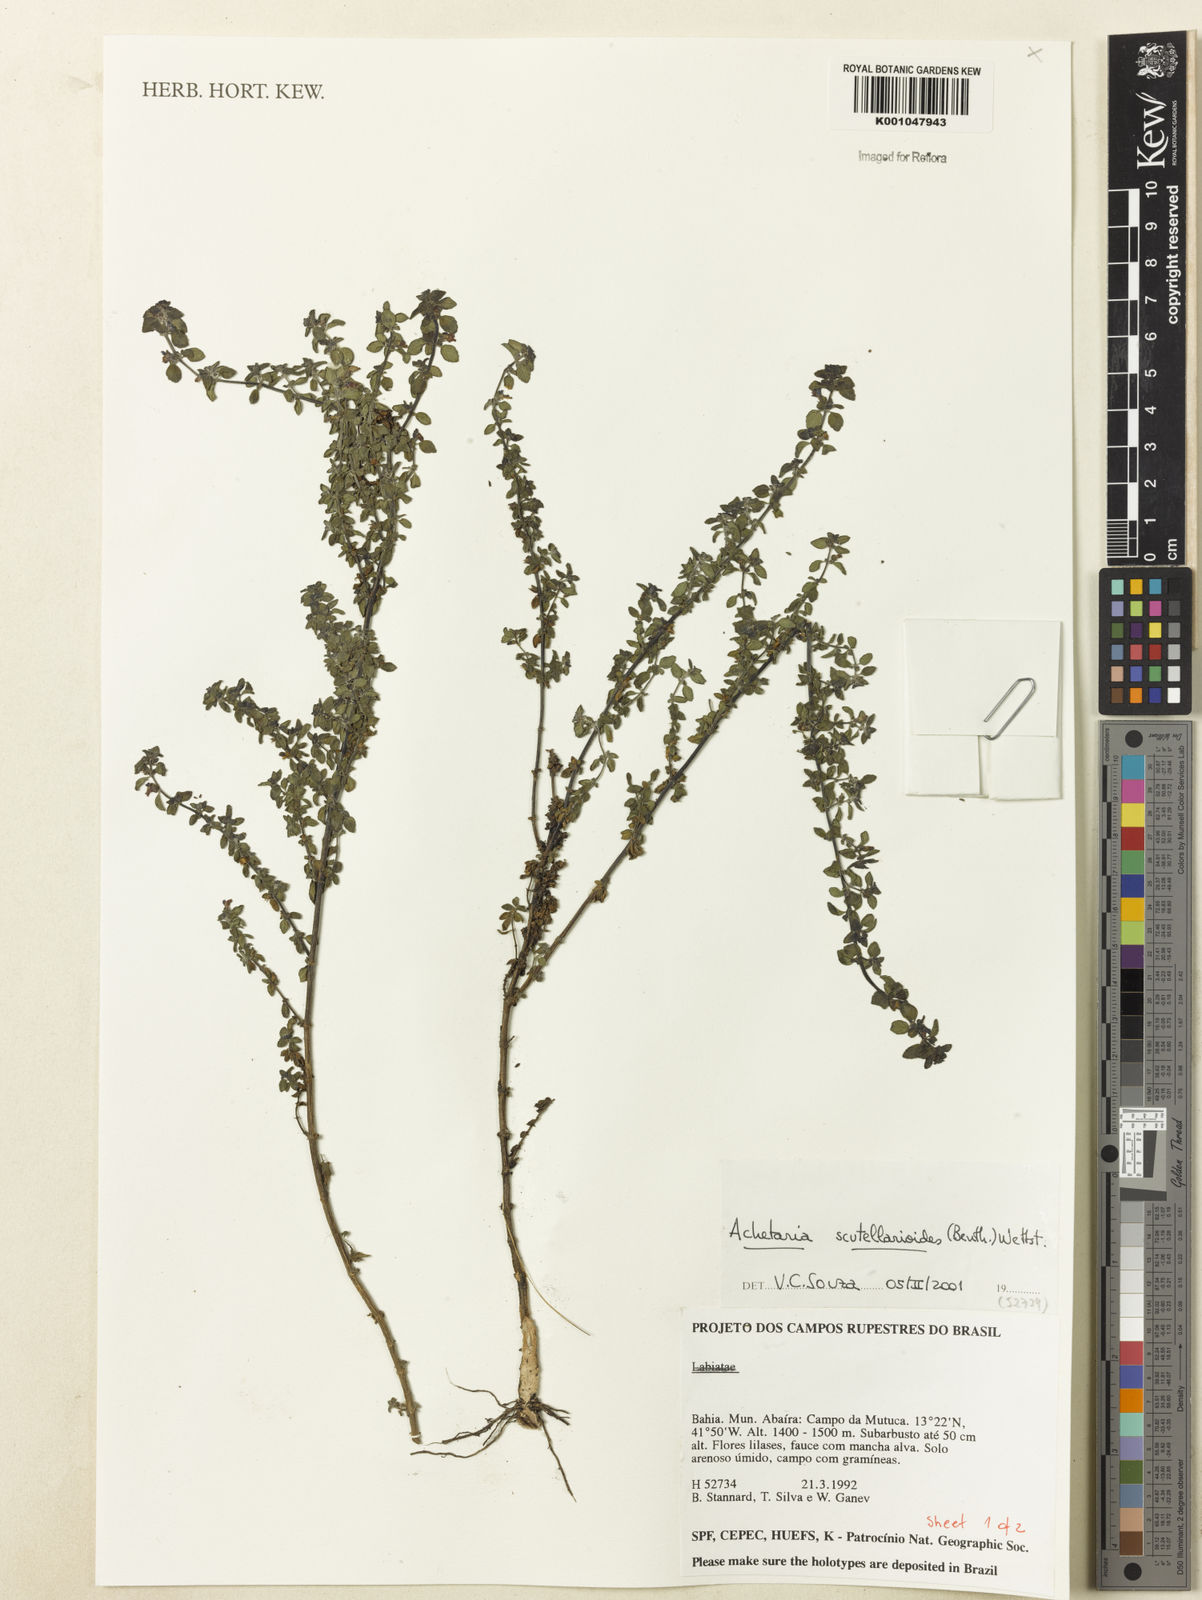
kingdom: Plantae
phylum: Tracheophyta
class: Magnoliopsida
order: Lamiales
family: Plantaginaceae
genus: Matourea
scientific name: Matourea scutellarioides
